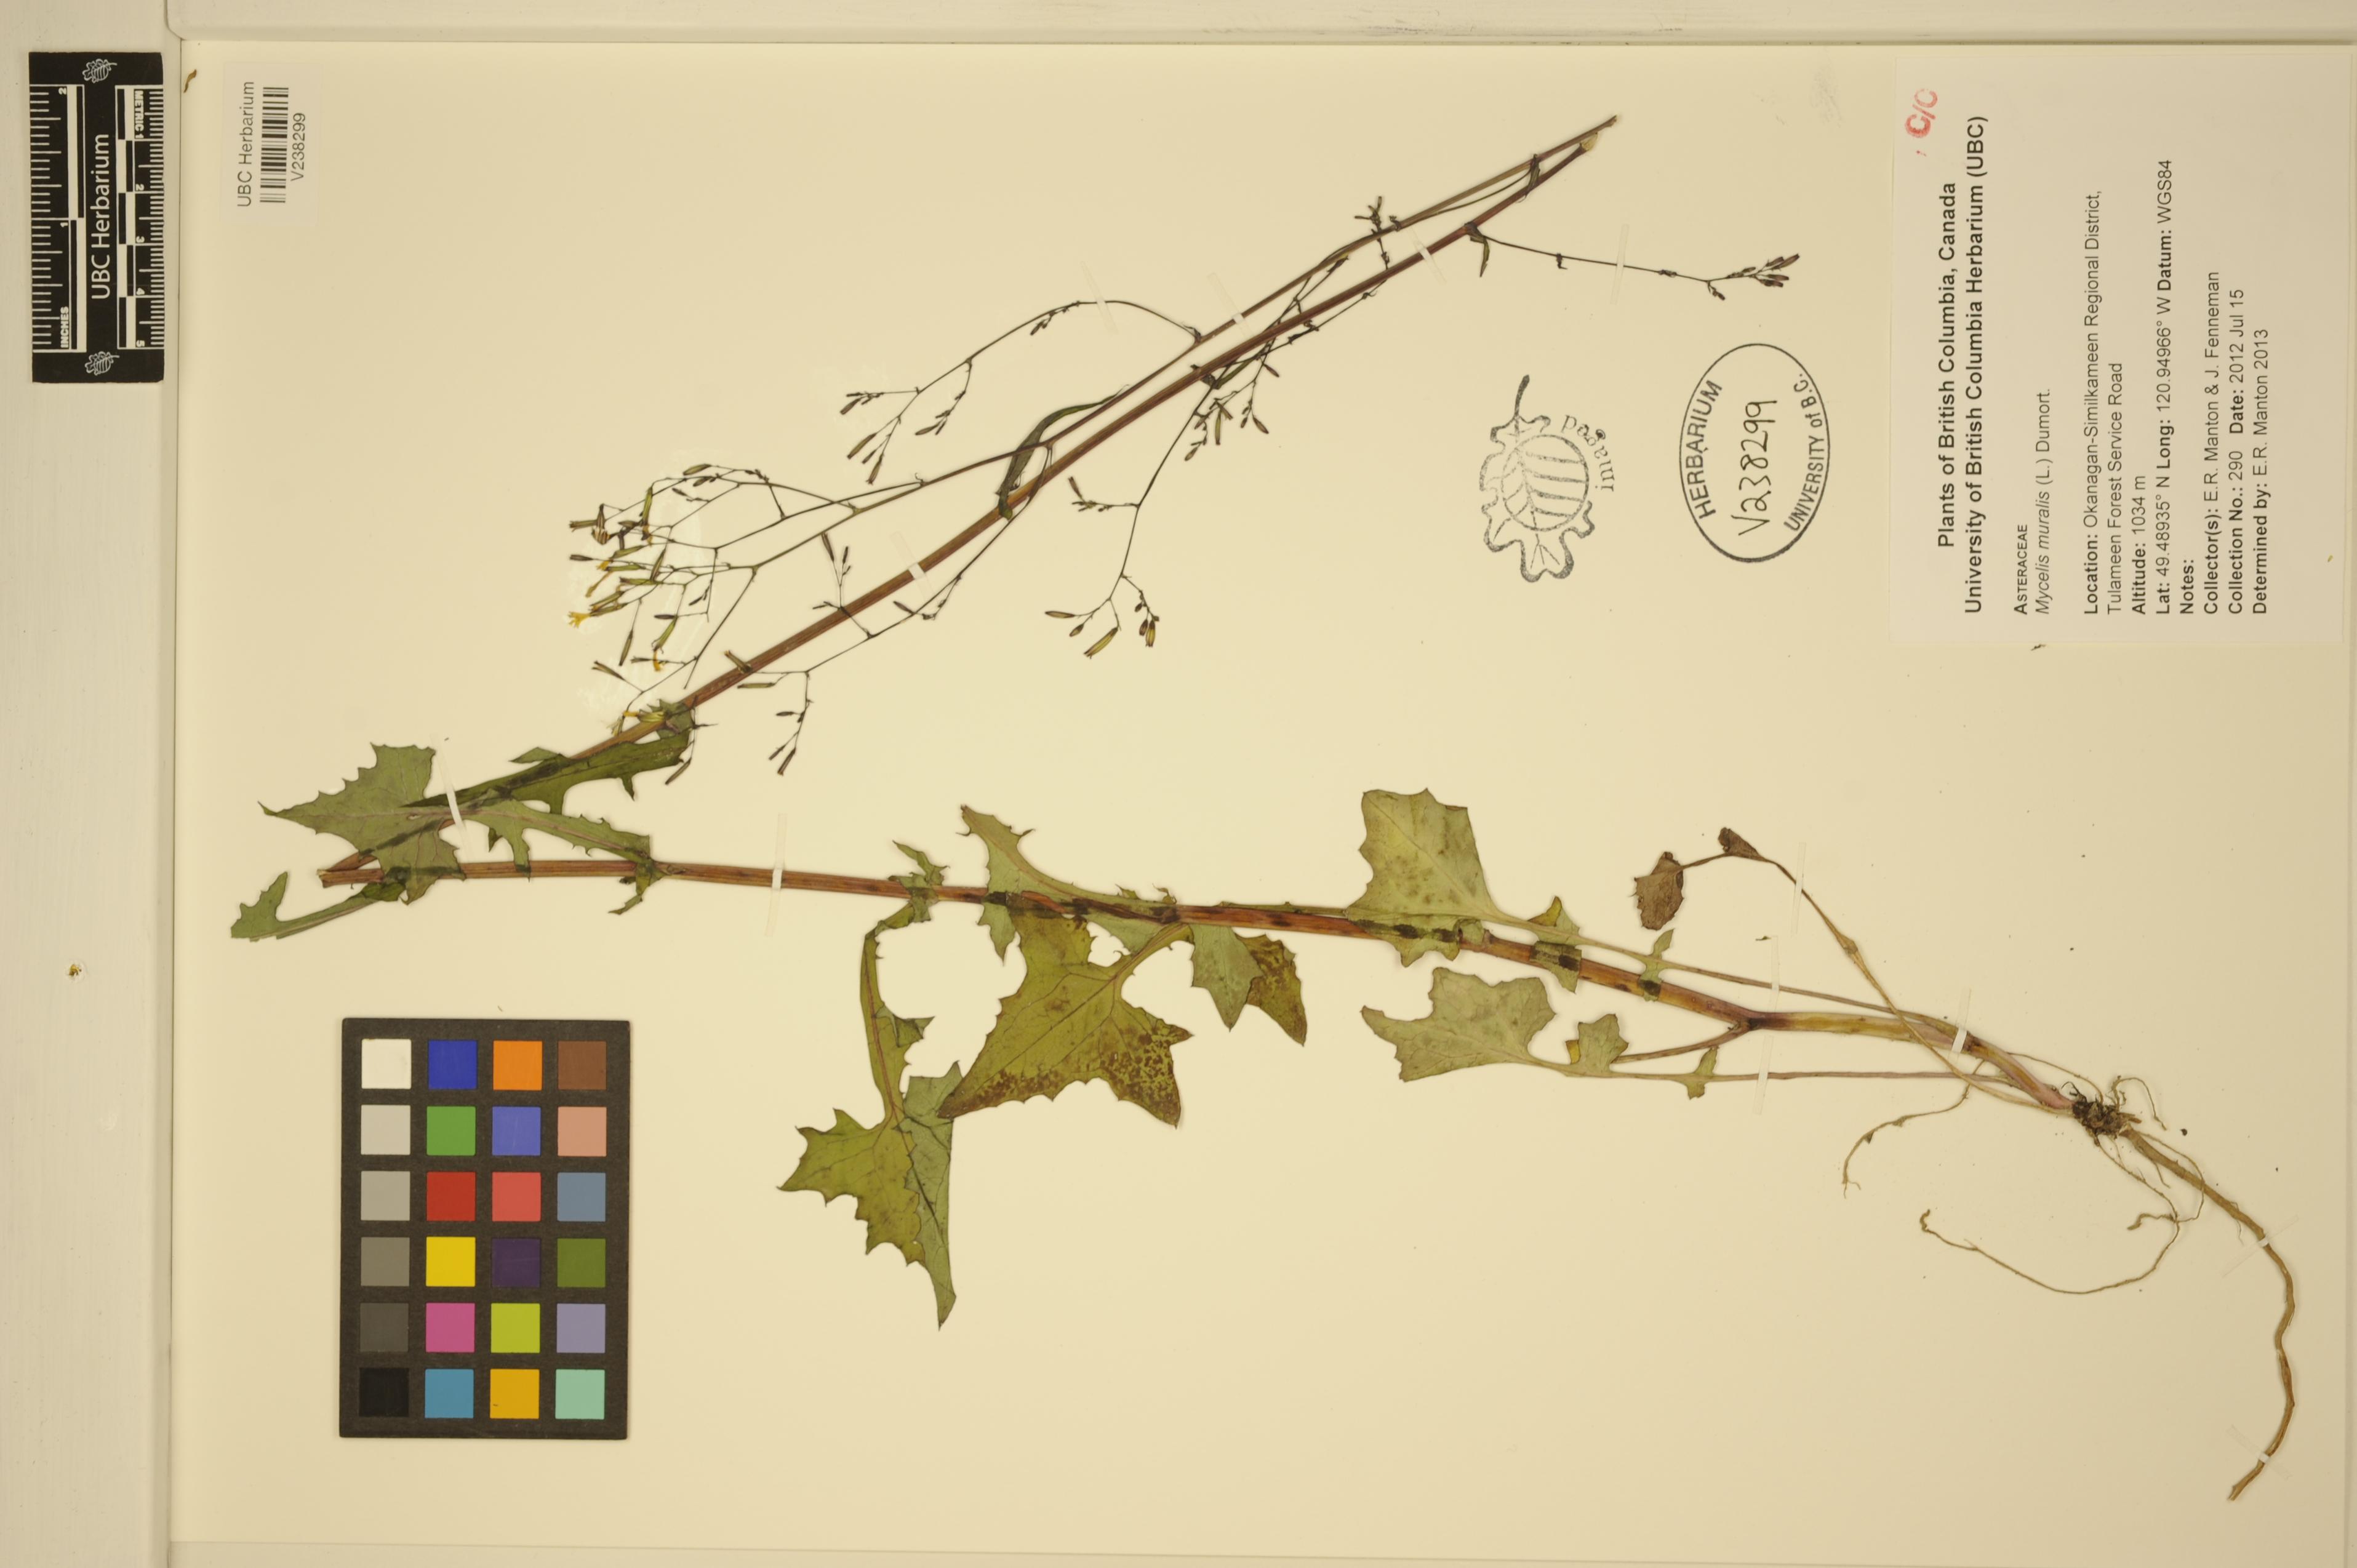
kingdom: Plantae
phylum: Tracheophyta
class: Magnoliopsida
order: Asterales
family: Asteraceae
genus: Mycelis
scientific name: Mycelis muralis
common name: Wall lettuce
